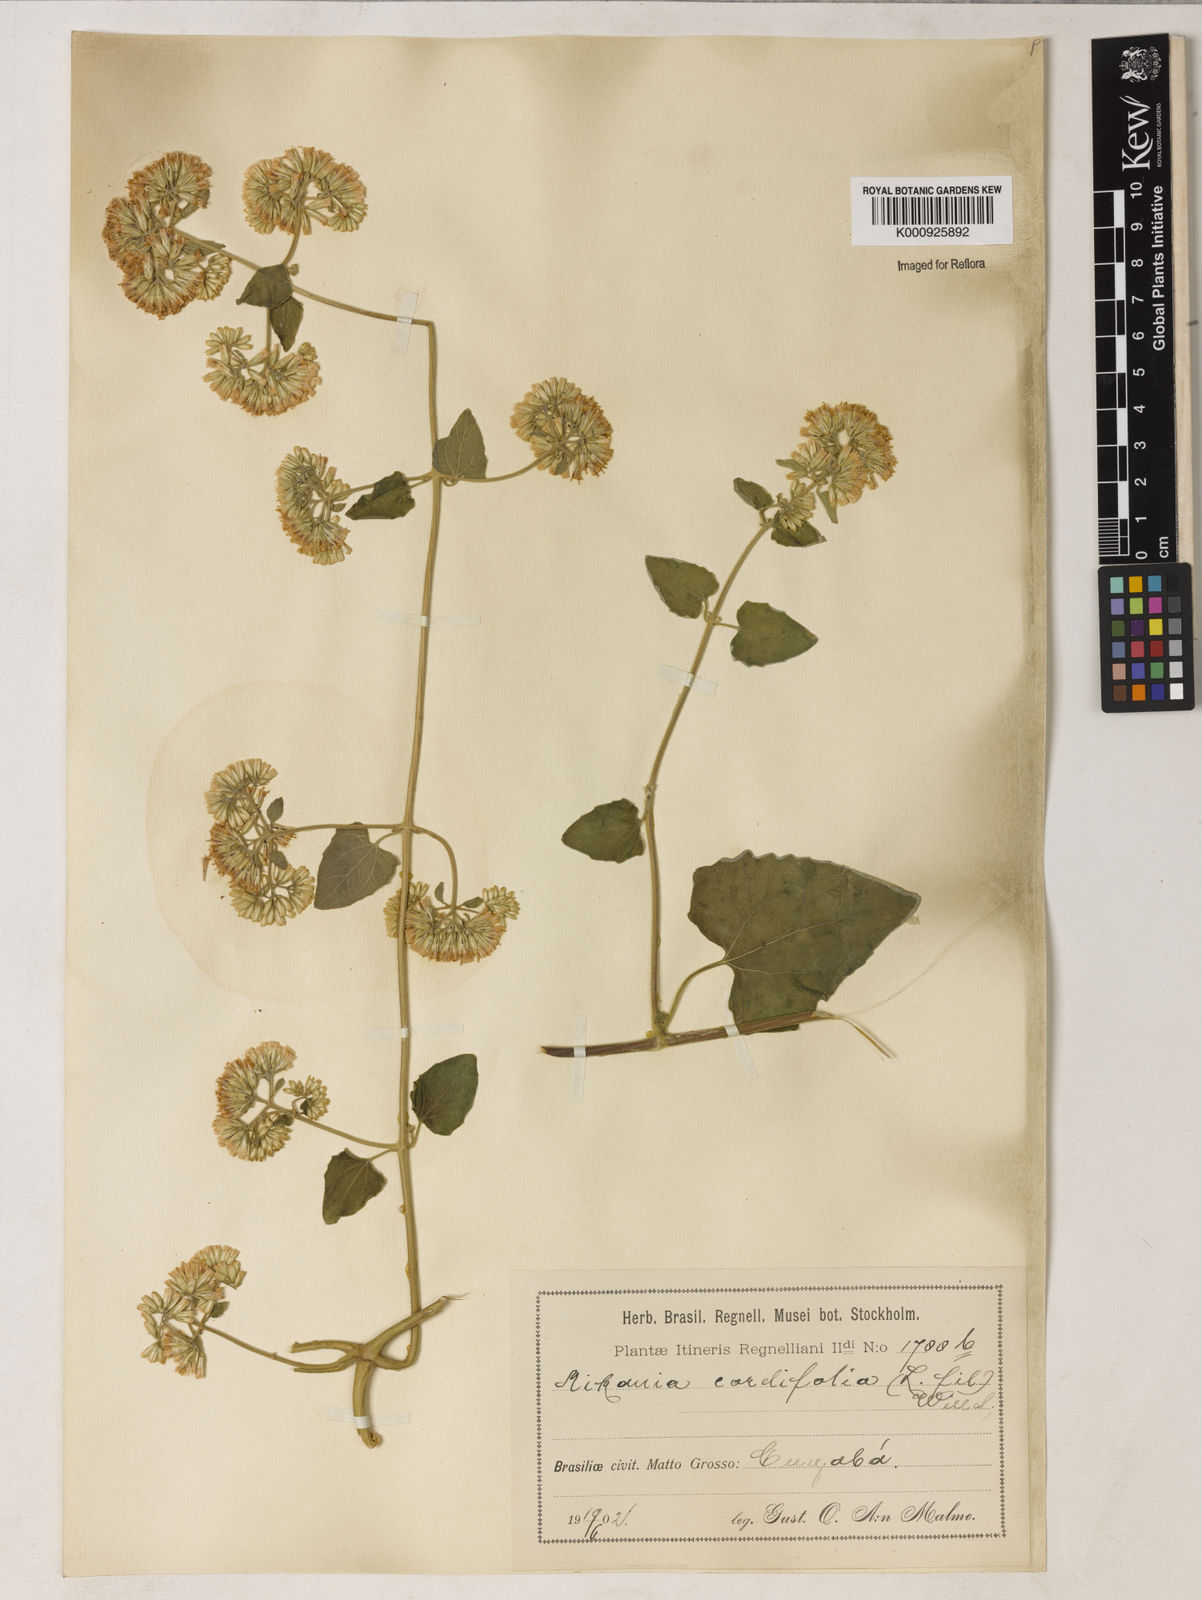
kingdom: Plantae
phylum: Tracheophyta
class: Magnoliopsida
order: Asterales
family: Asteraceae
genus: Mikania
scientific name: Mikania
